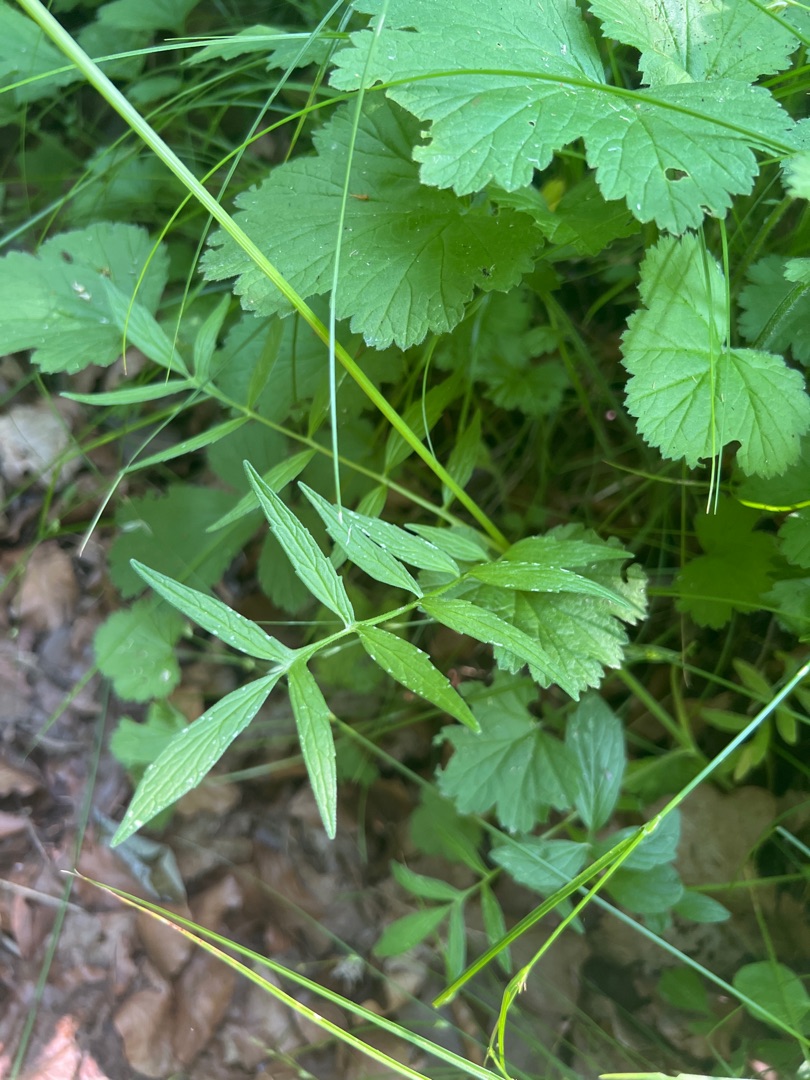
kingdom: Plantae
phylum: Tracheophyta
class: Magnoliopsida
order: Dipsacales
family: Caprifoliaceae
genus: Valeriana
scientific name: Valeriana sambucifolia
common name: Hyldebladet baldrian
